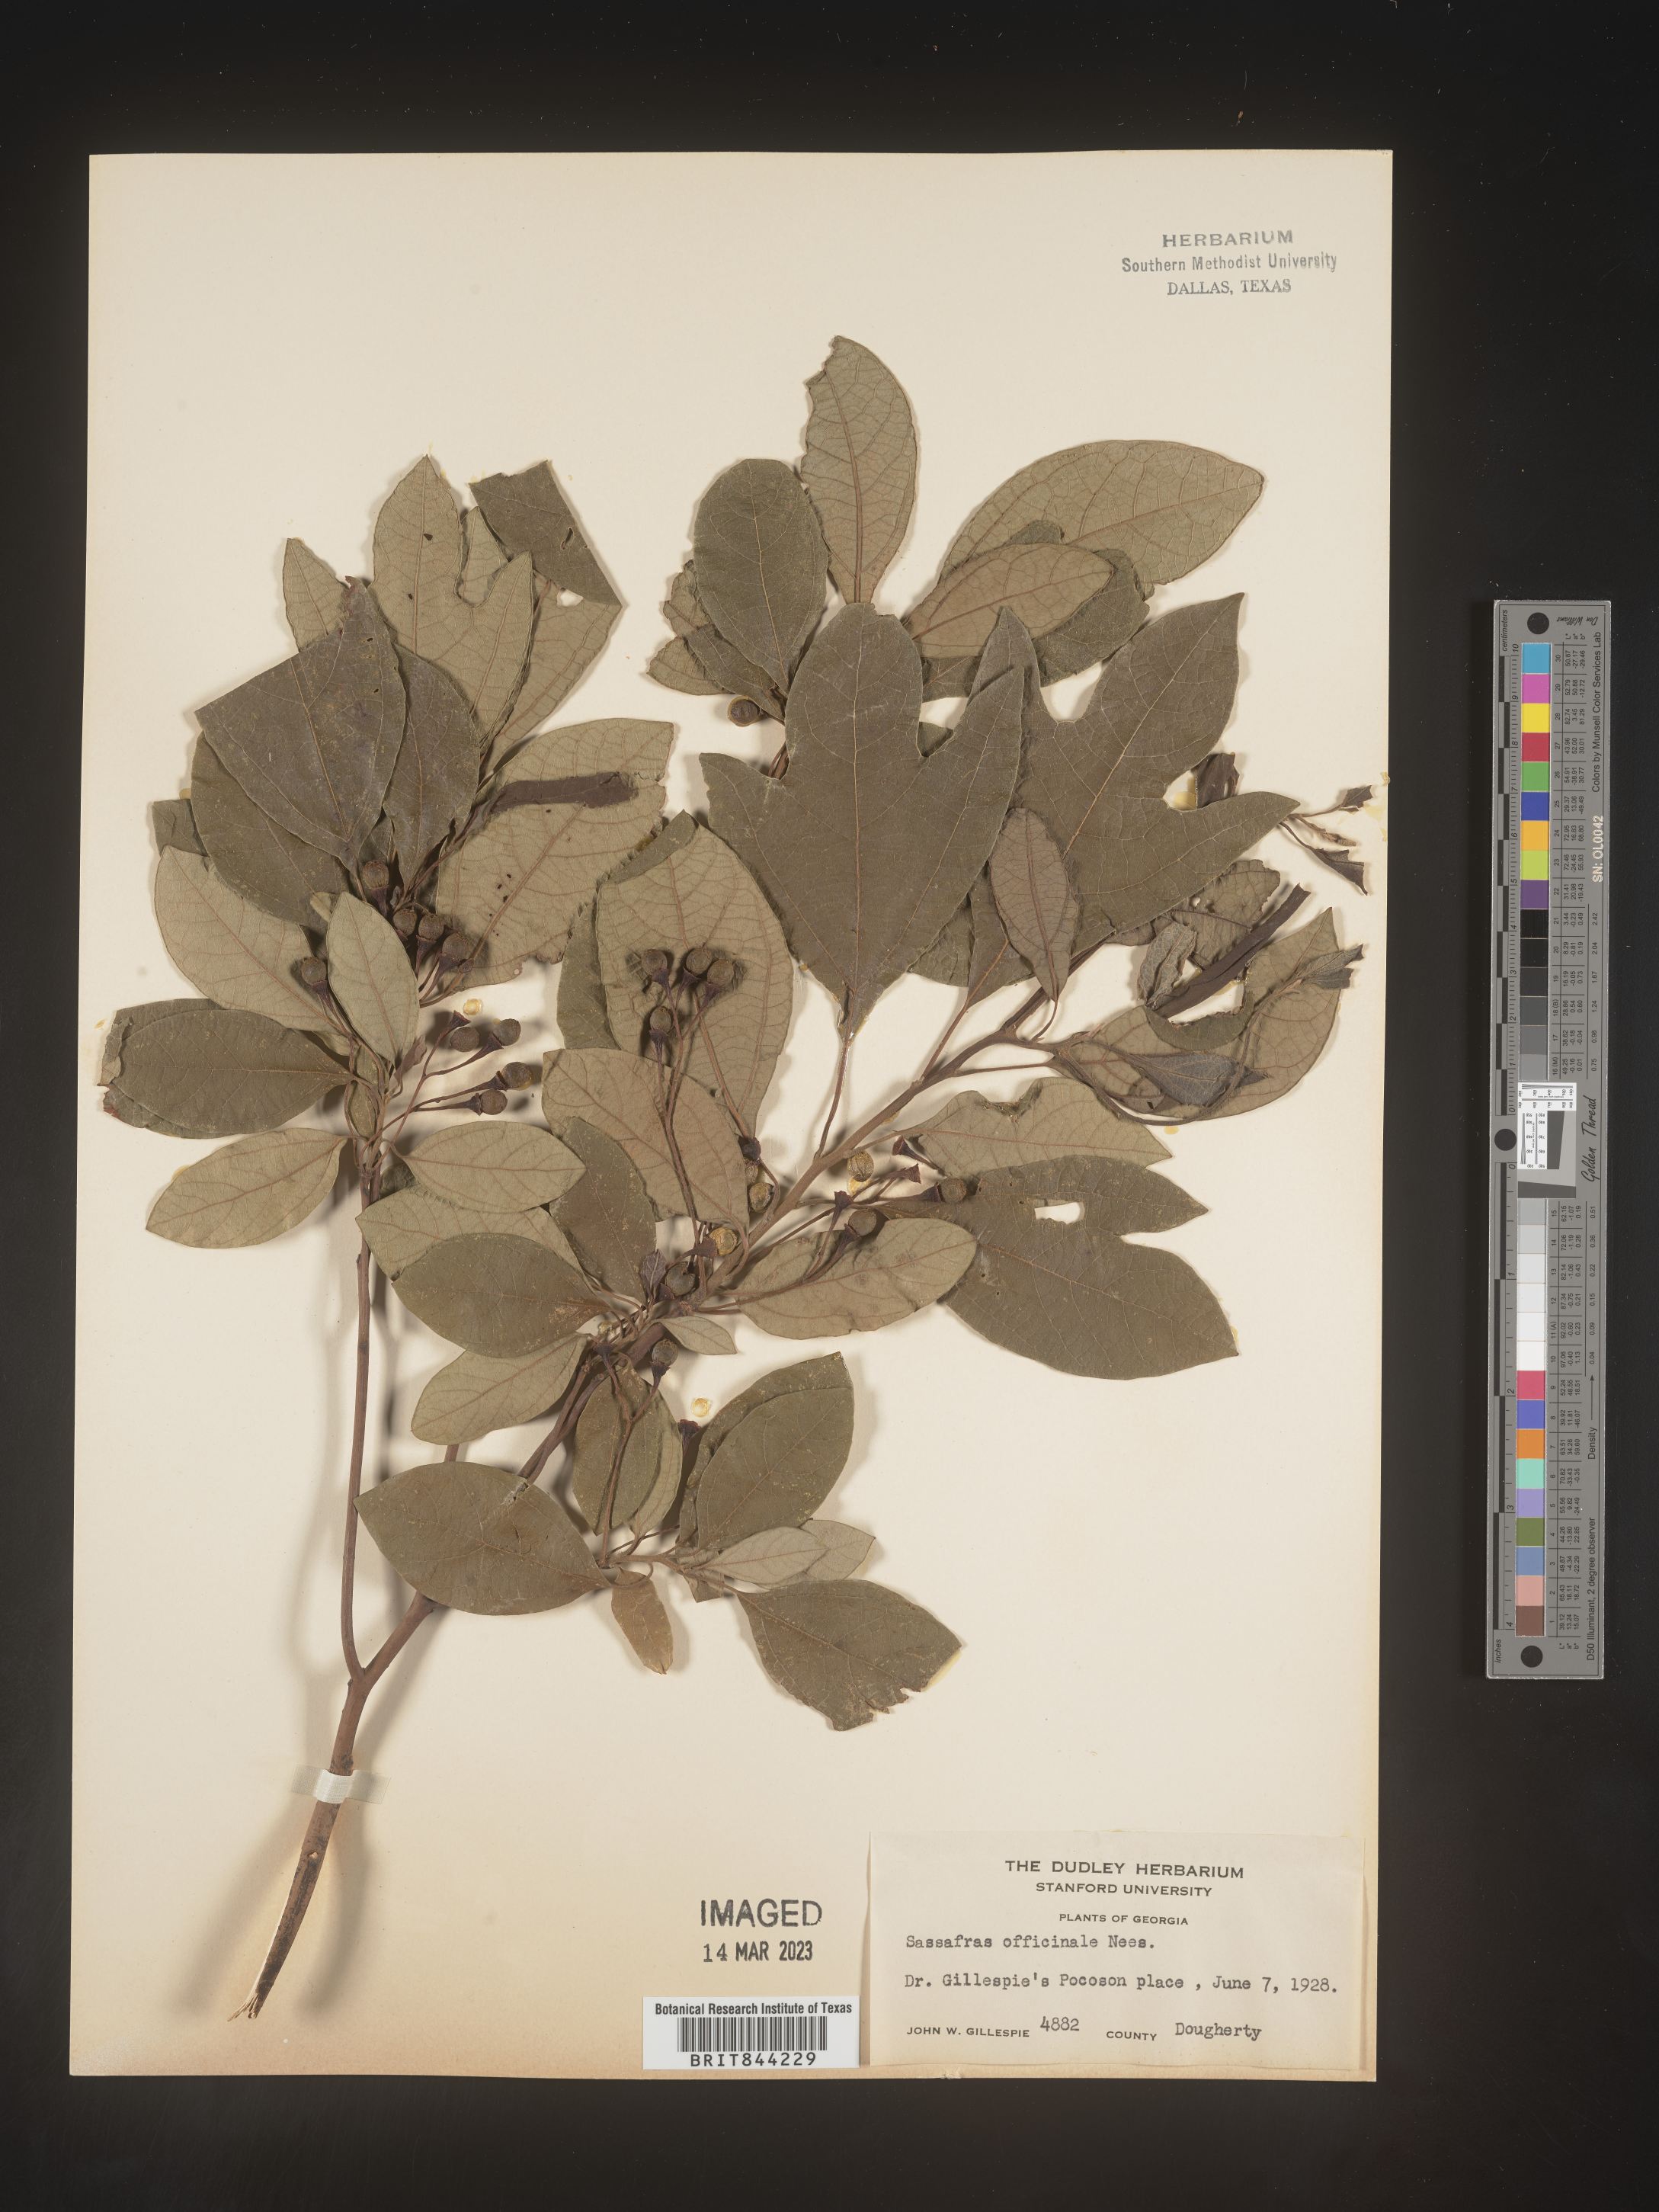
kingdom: Plantae
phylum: Tracheophyta
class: Magnoliopsida
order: Laurales
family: Lauraceae
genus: Sassafras
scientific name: Sassafras albidum
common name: Sassafras
